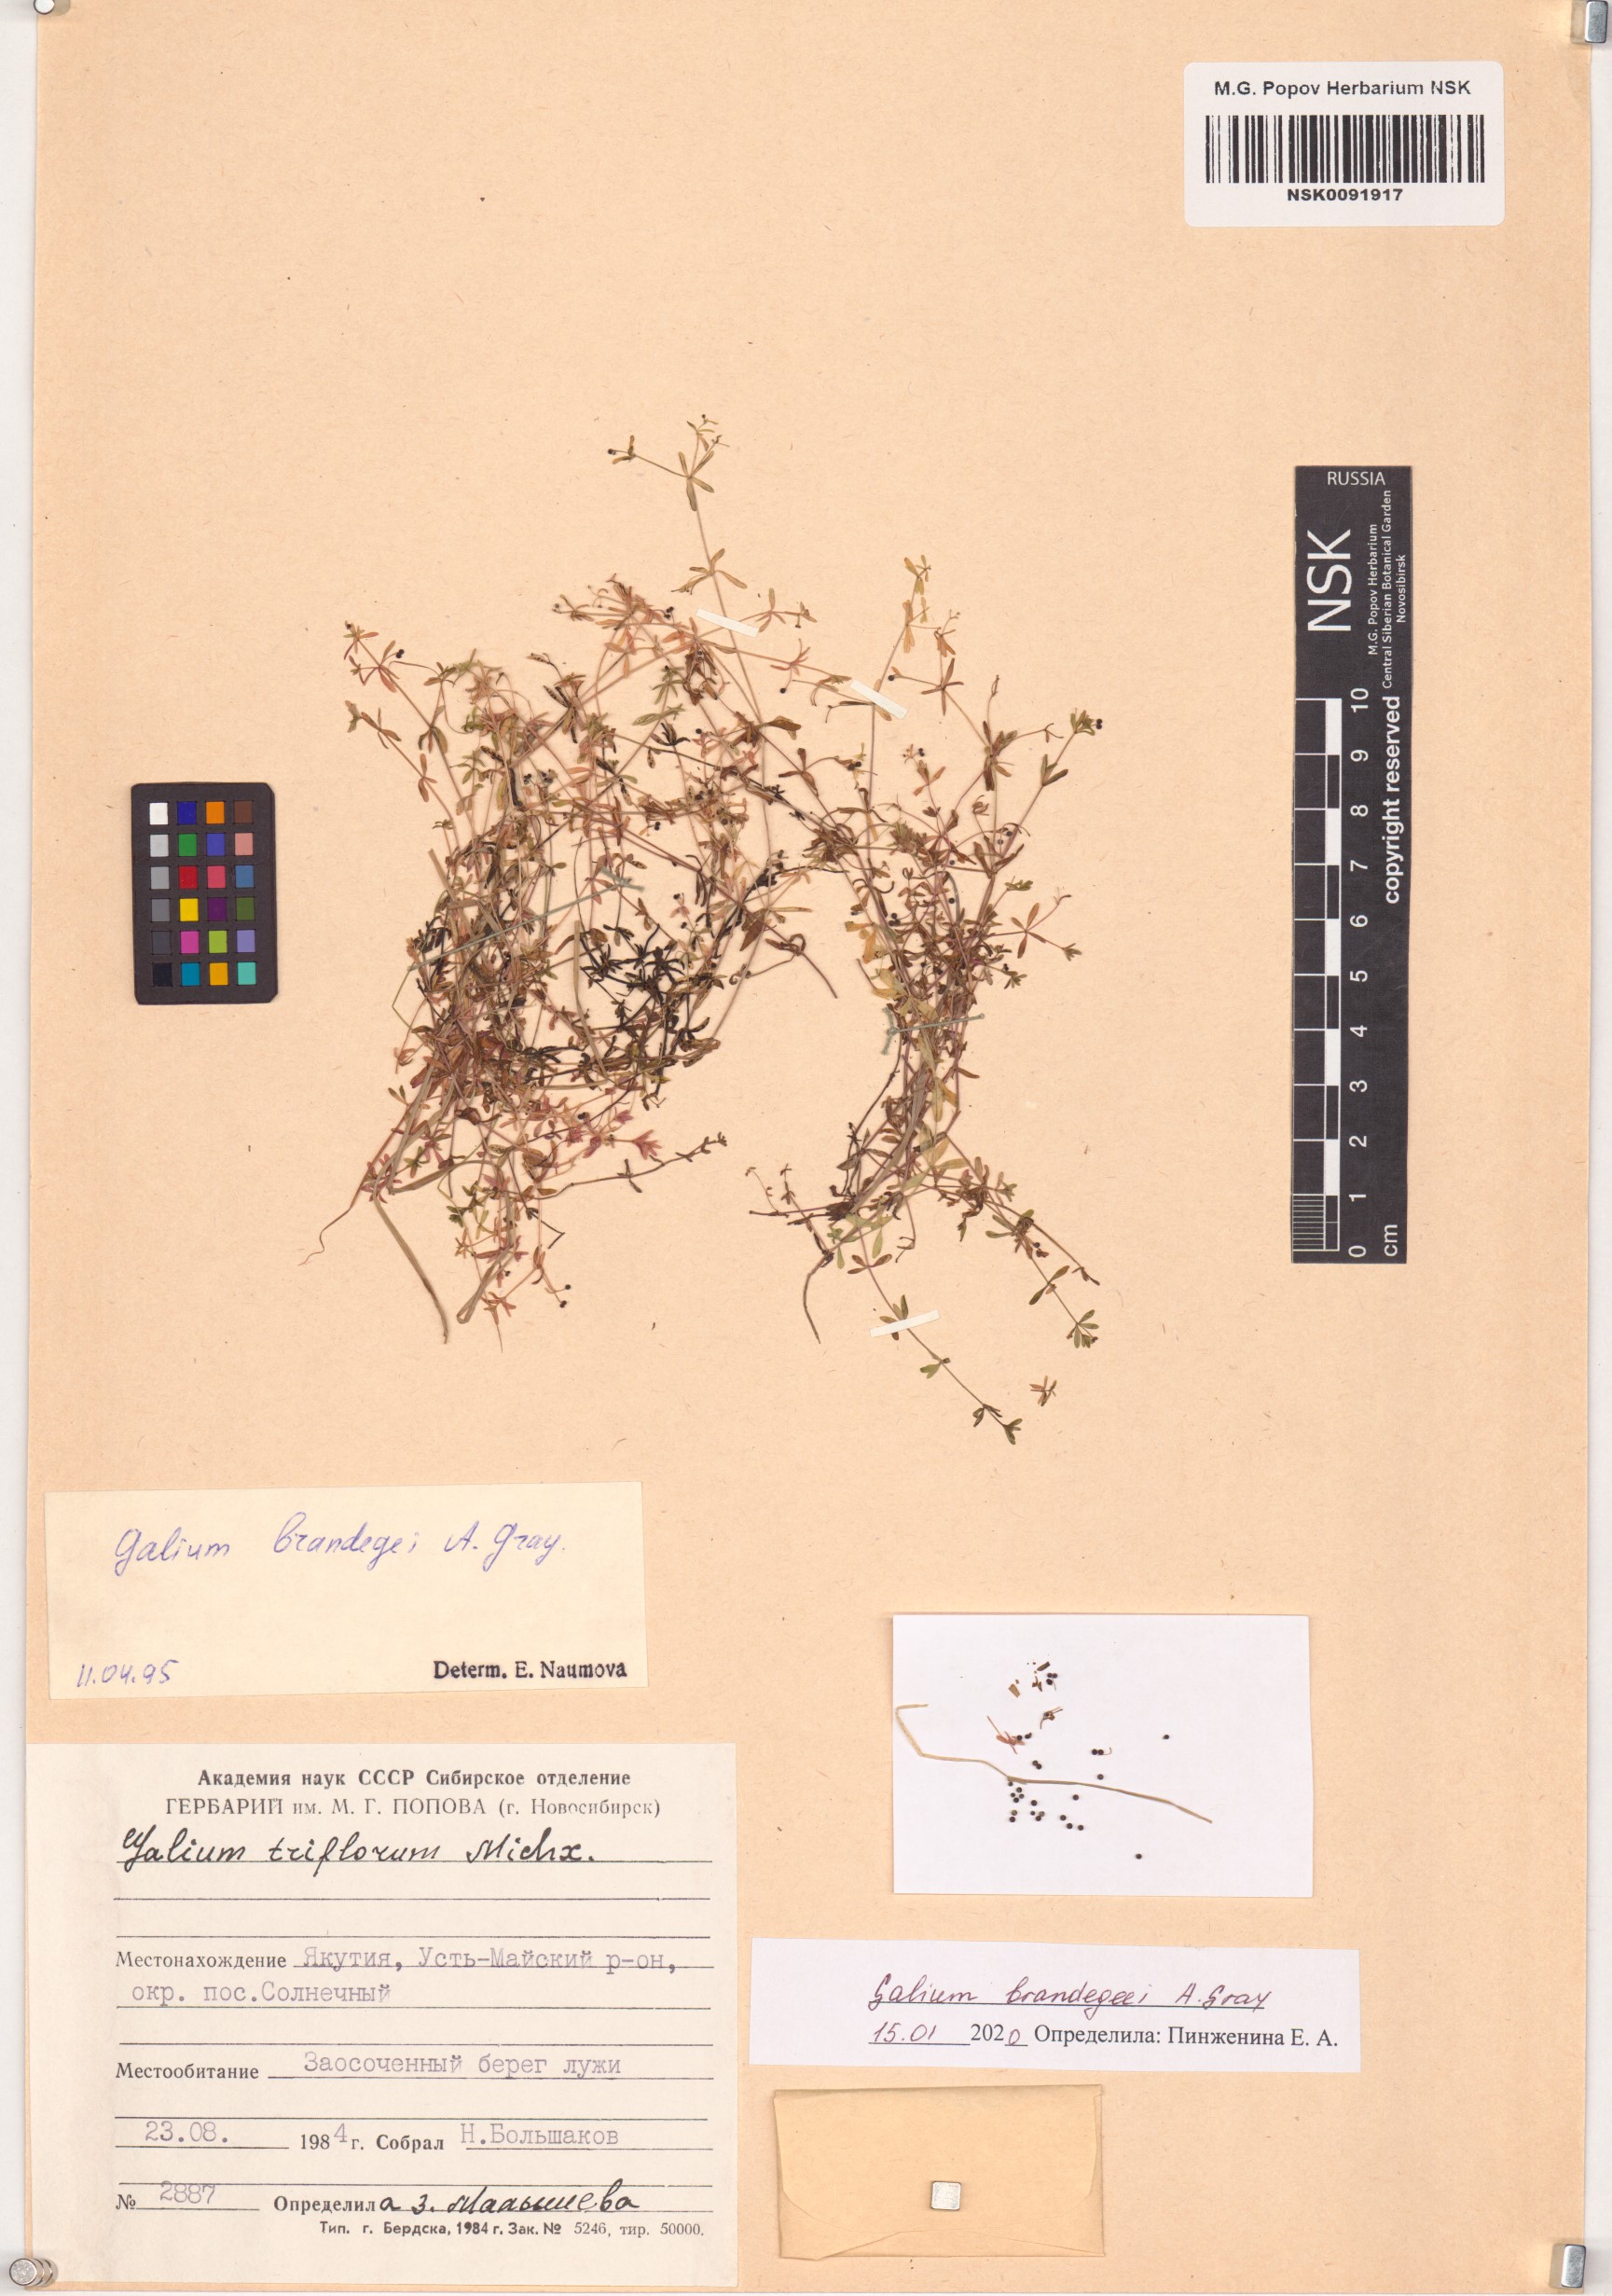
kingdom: Plantae
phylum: Tracheophyta
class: Magnoliopsida
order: Gentianales
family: Rubiaceae
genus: Galium
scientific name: Galium trifidum
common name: Small bedstraw
